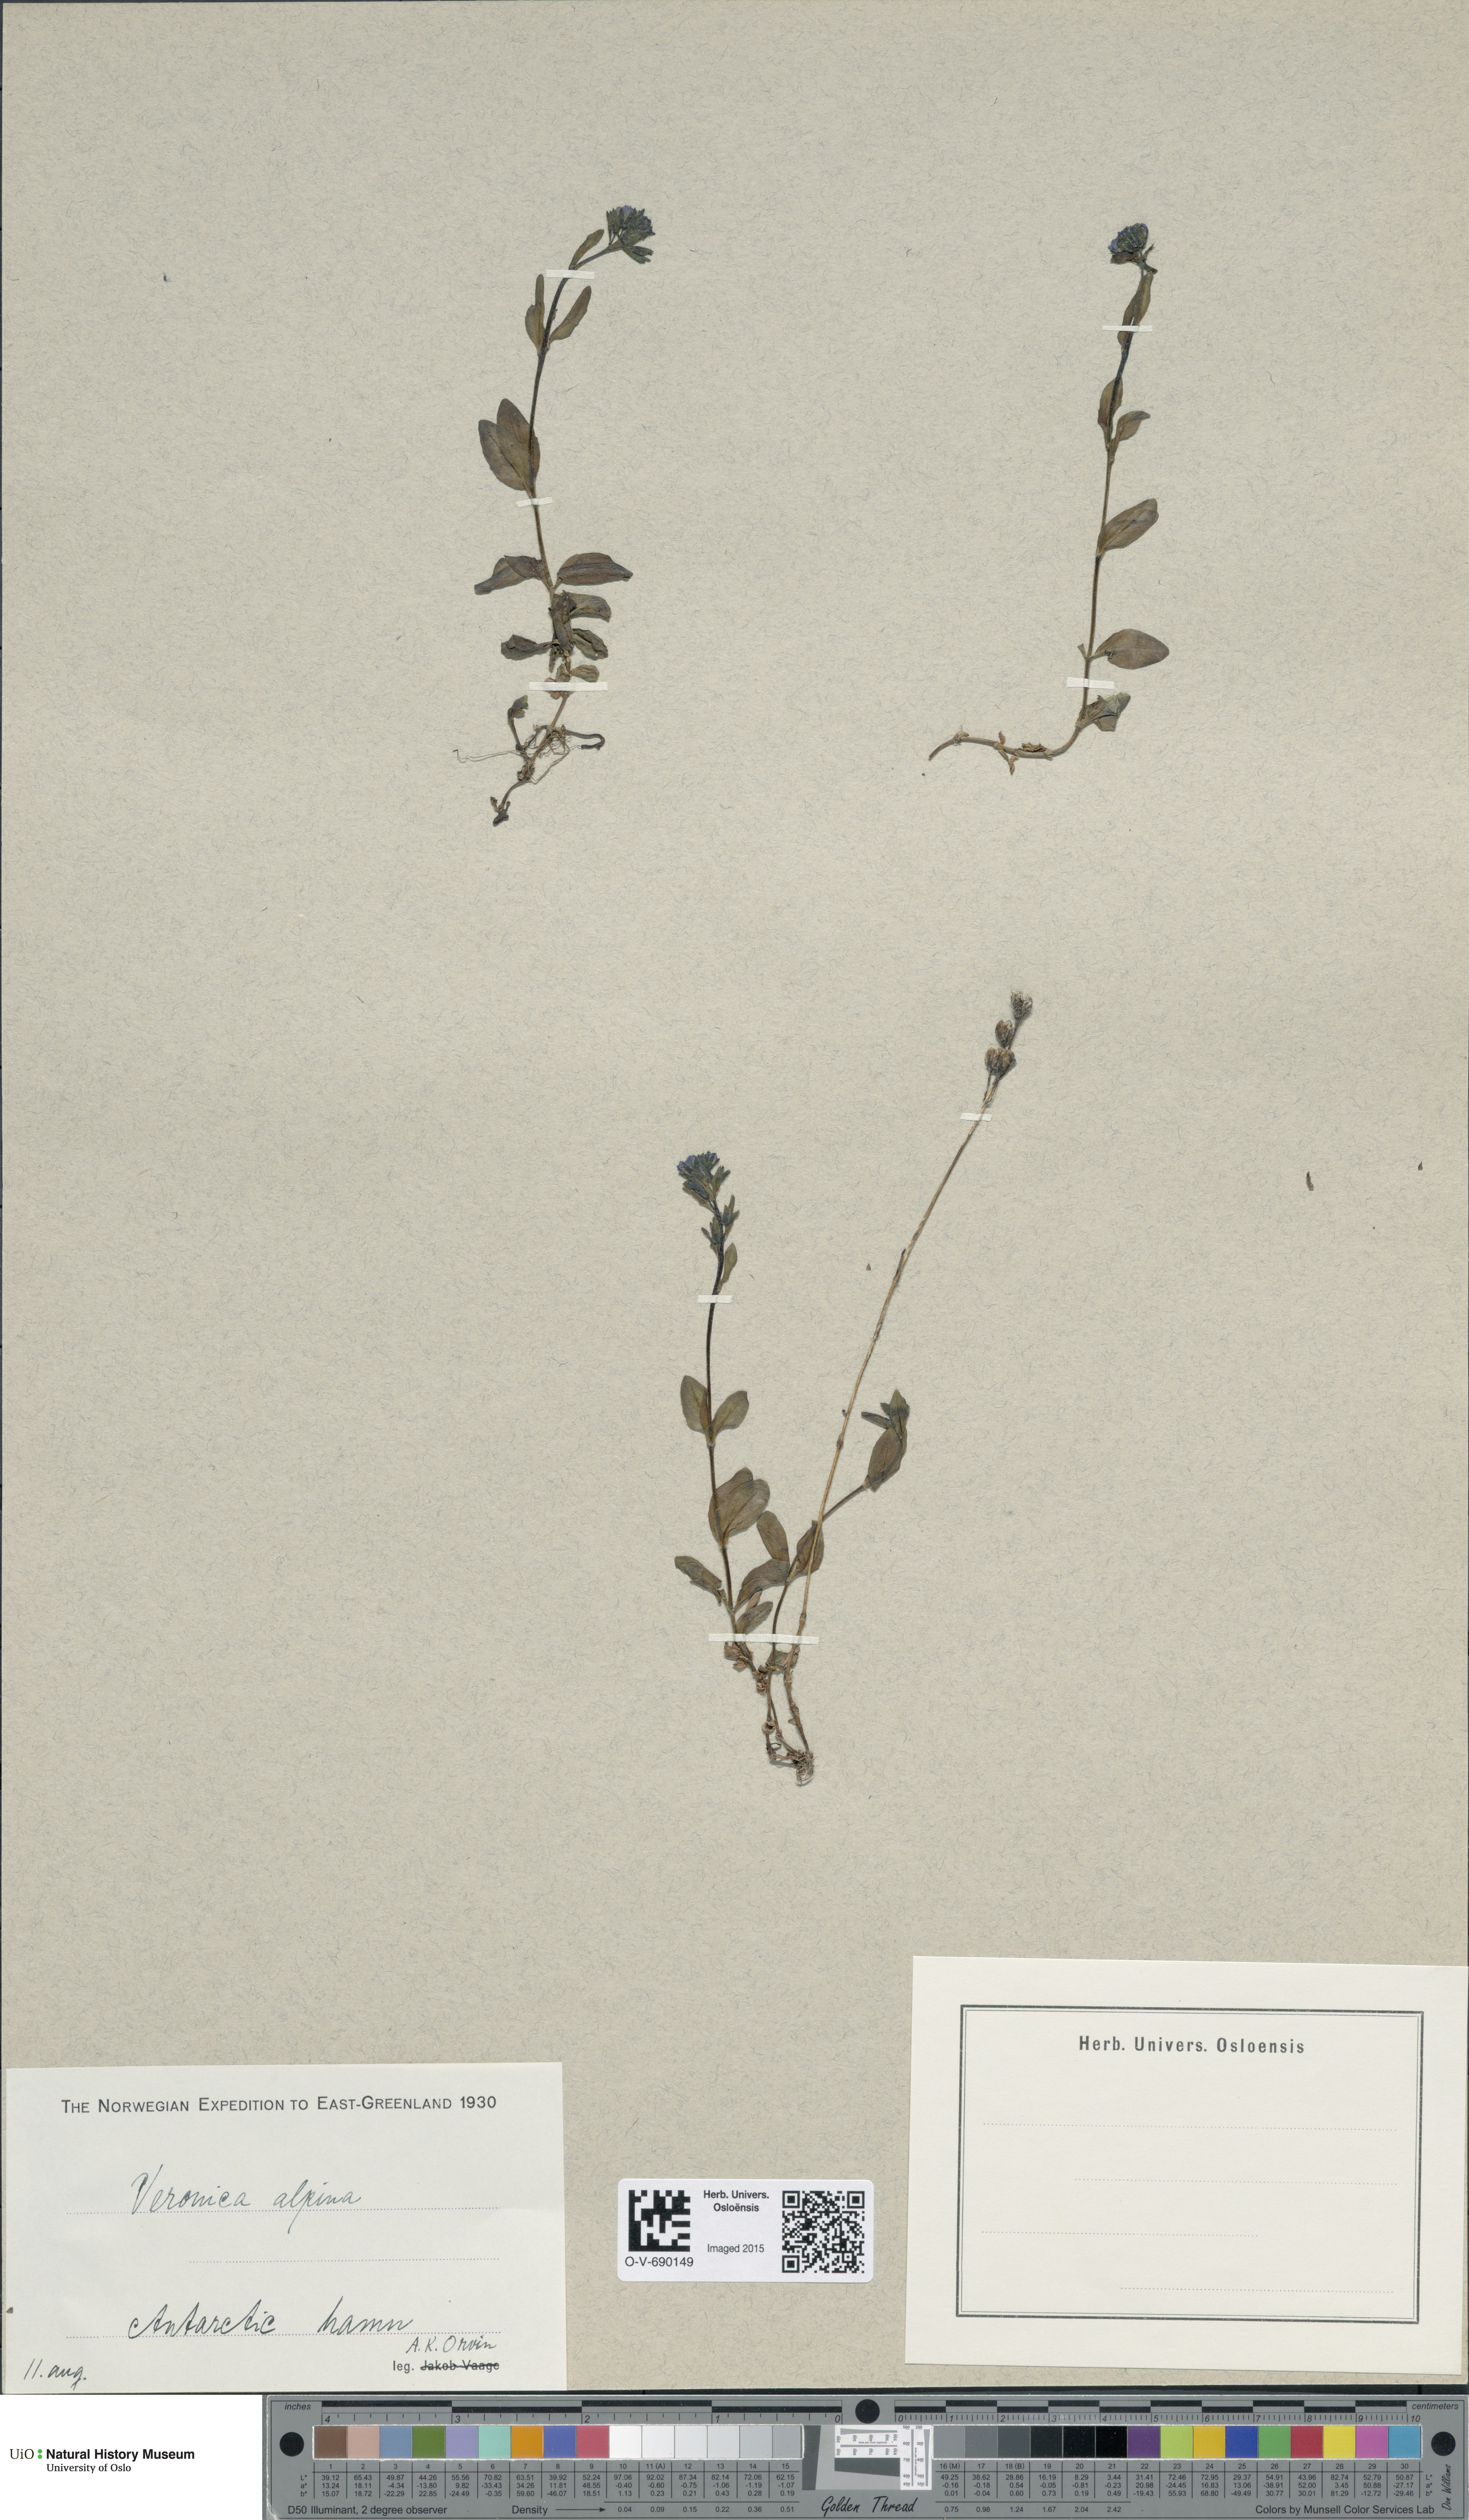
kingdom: Plantae
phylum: Tracheophyta
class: Magnoliopsida
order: Lamiales
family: Plantaginaceae
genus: Veronica
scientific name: Veronica alpina
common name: Alpine speedwell
